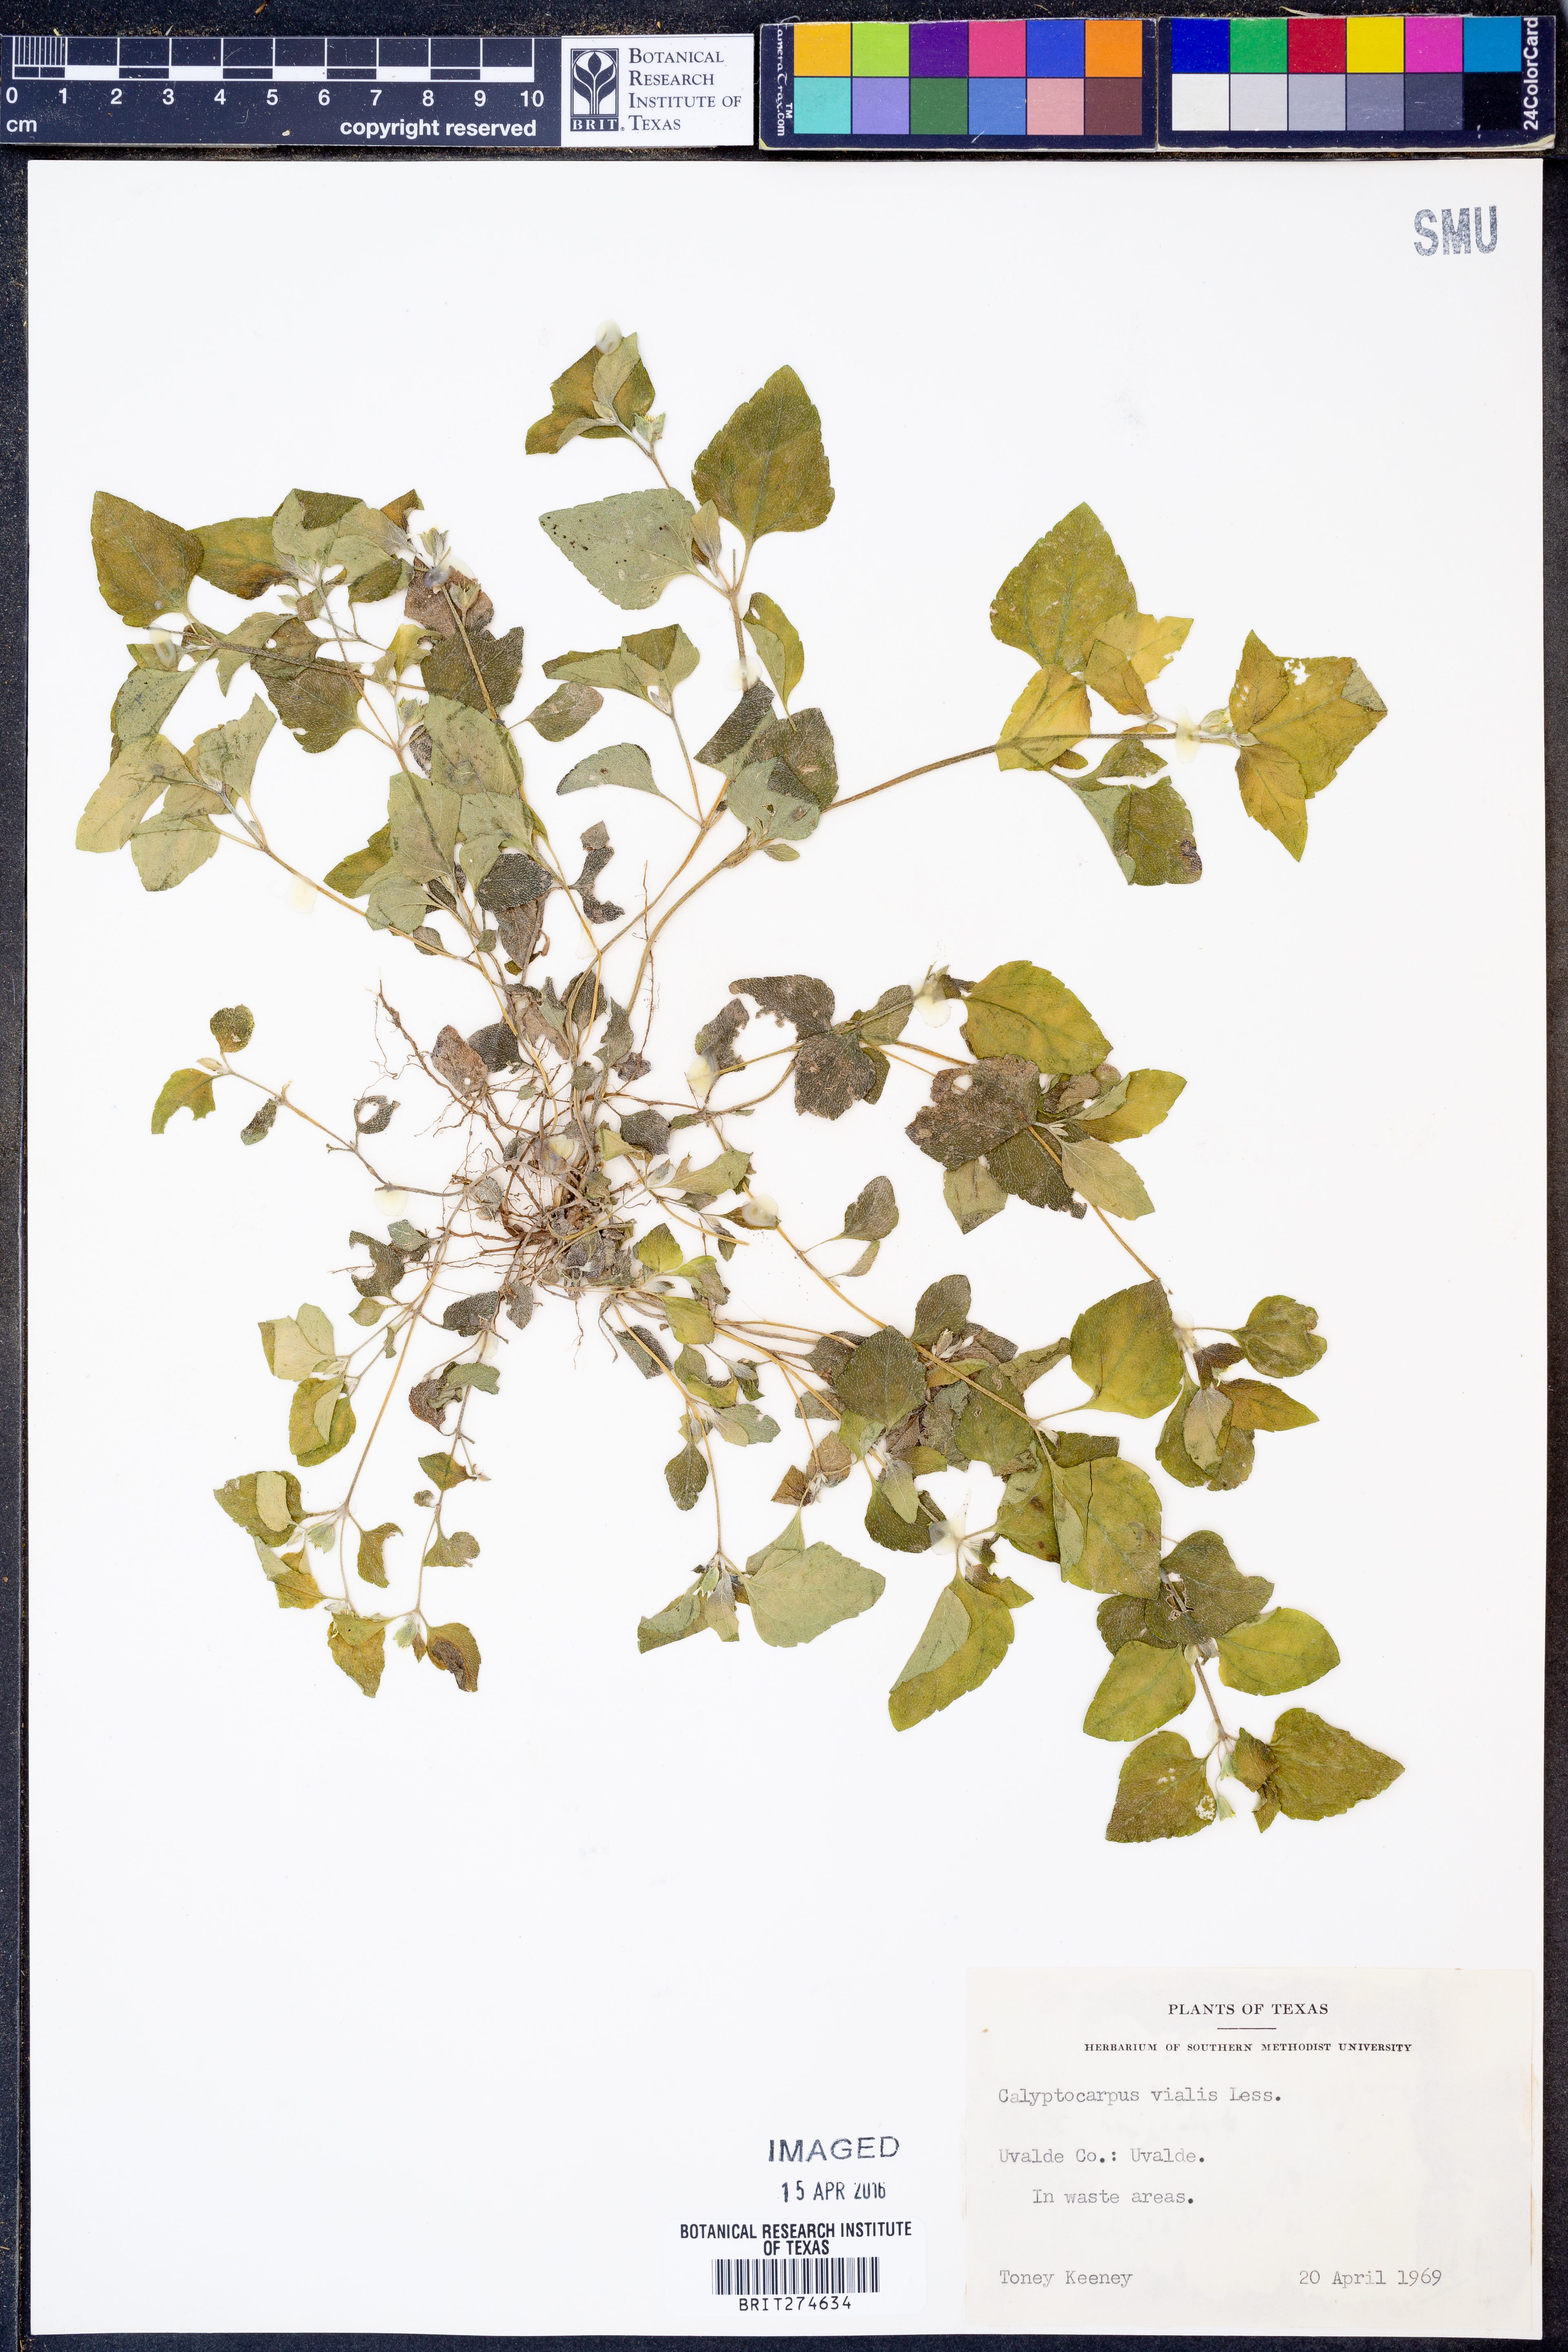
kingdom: Plantae
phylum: Tracheophyta
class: Magnoliopsida
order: Asterales
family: Asteraceae
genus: Calyptocarpus
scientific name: Calyptocarpus vialis
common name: Straggler daisy
